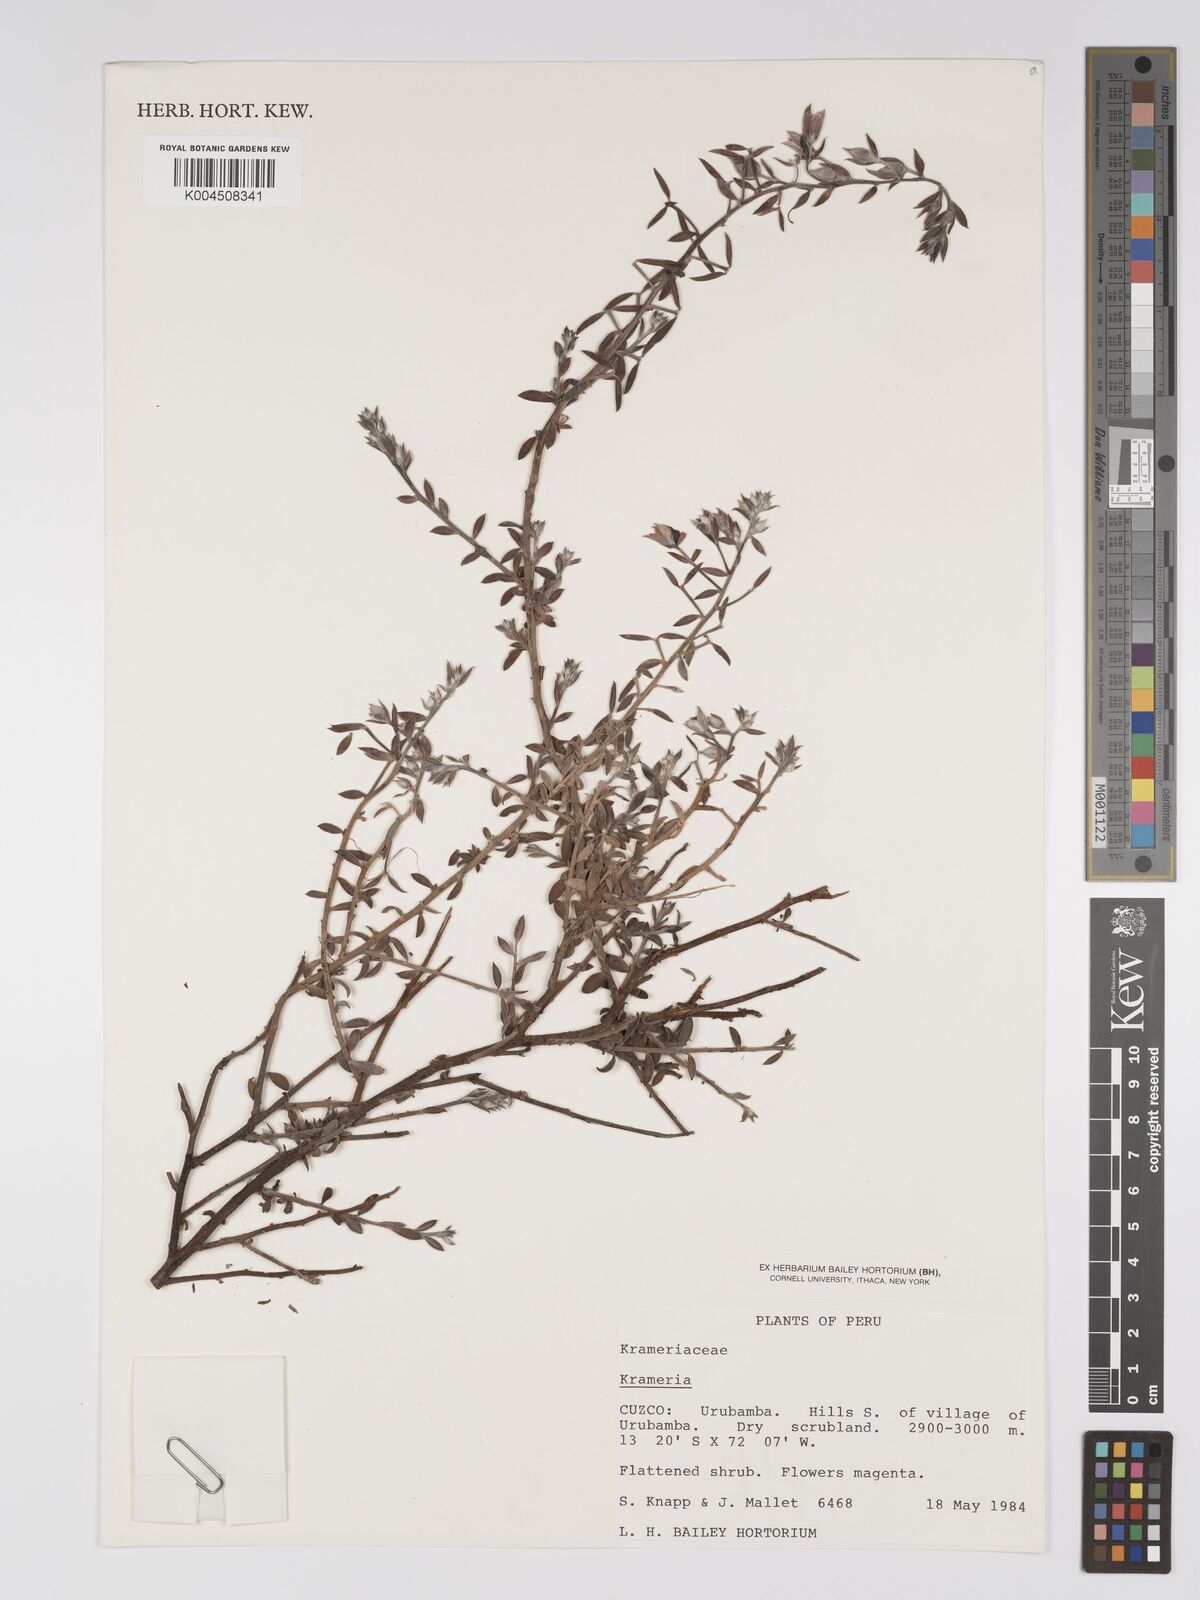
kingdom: Plantae
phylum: Tracheophyta
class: Magnoliopsida
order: Zygophyllales
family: Krameriaceae
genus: Krameria
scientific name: Krameria
